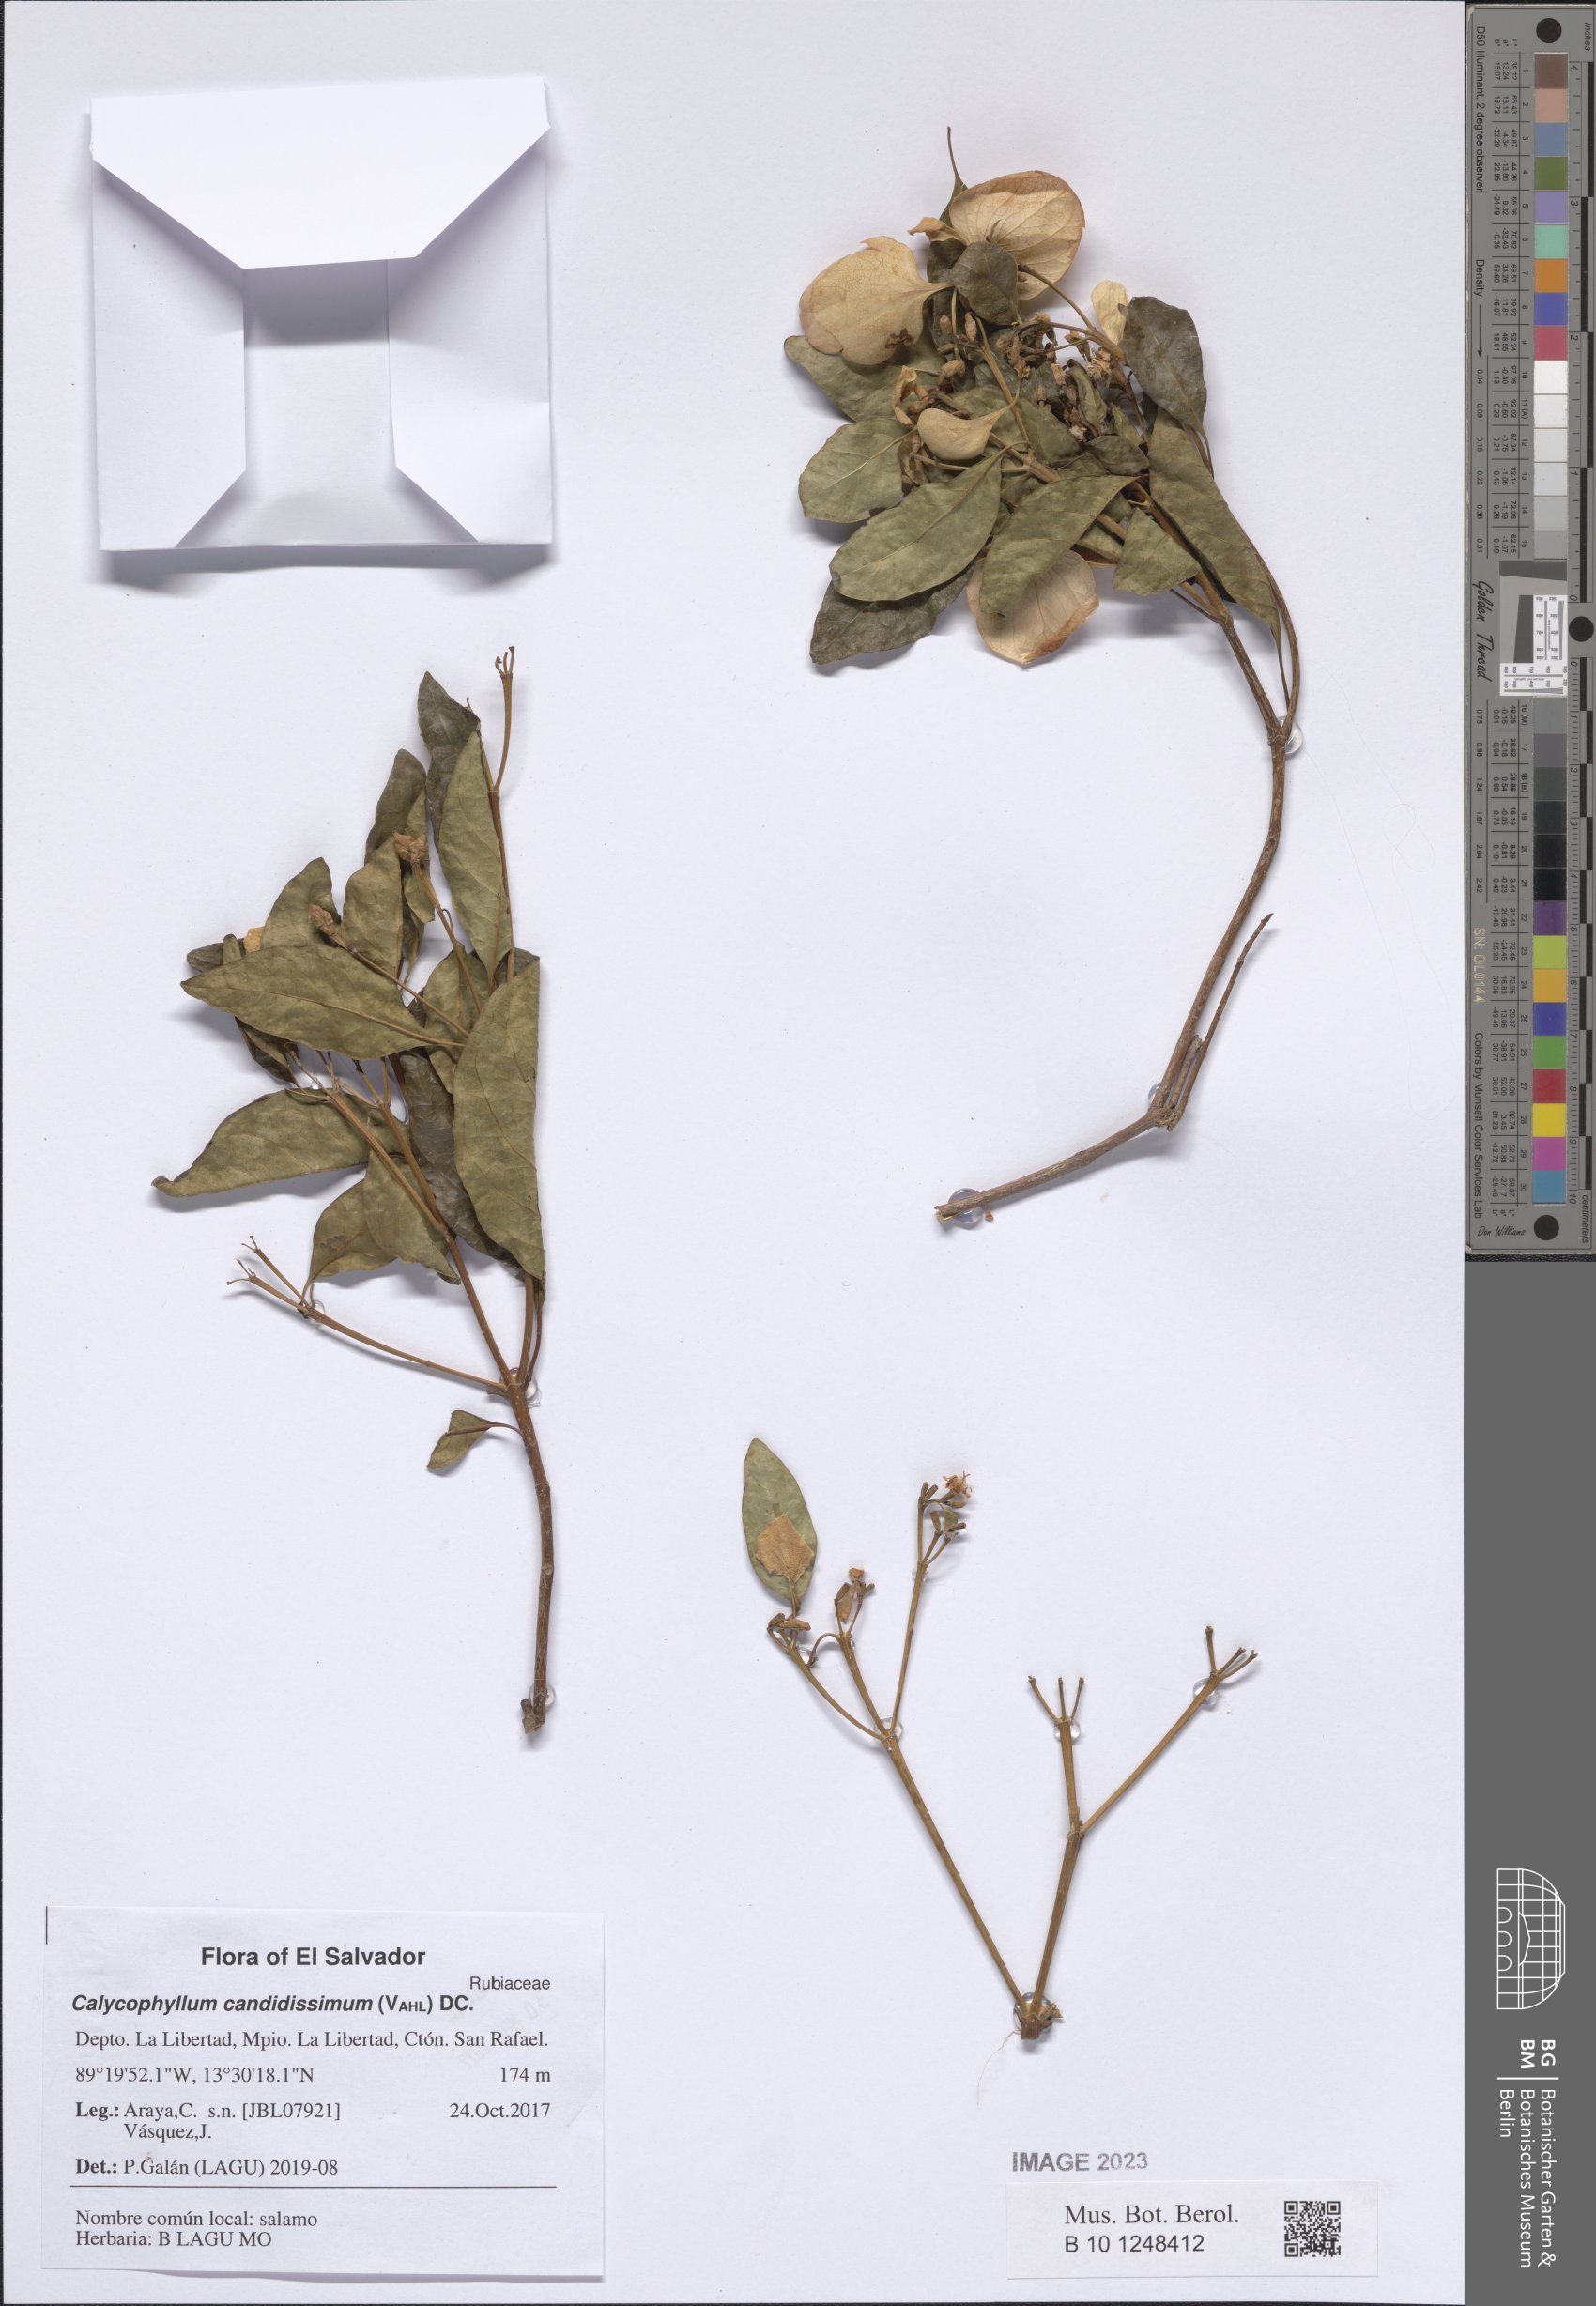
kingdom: Plantae
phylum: Tracheophyta
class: Magnoliopsida
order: Gentianales
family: Rubiaceae
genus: Calycophyllum
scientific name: Calycophyllum candidissimum
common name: Dagame
